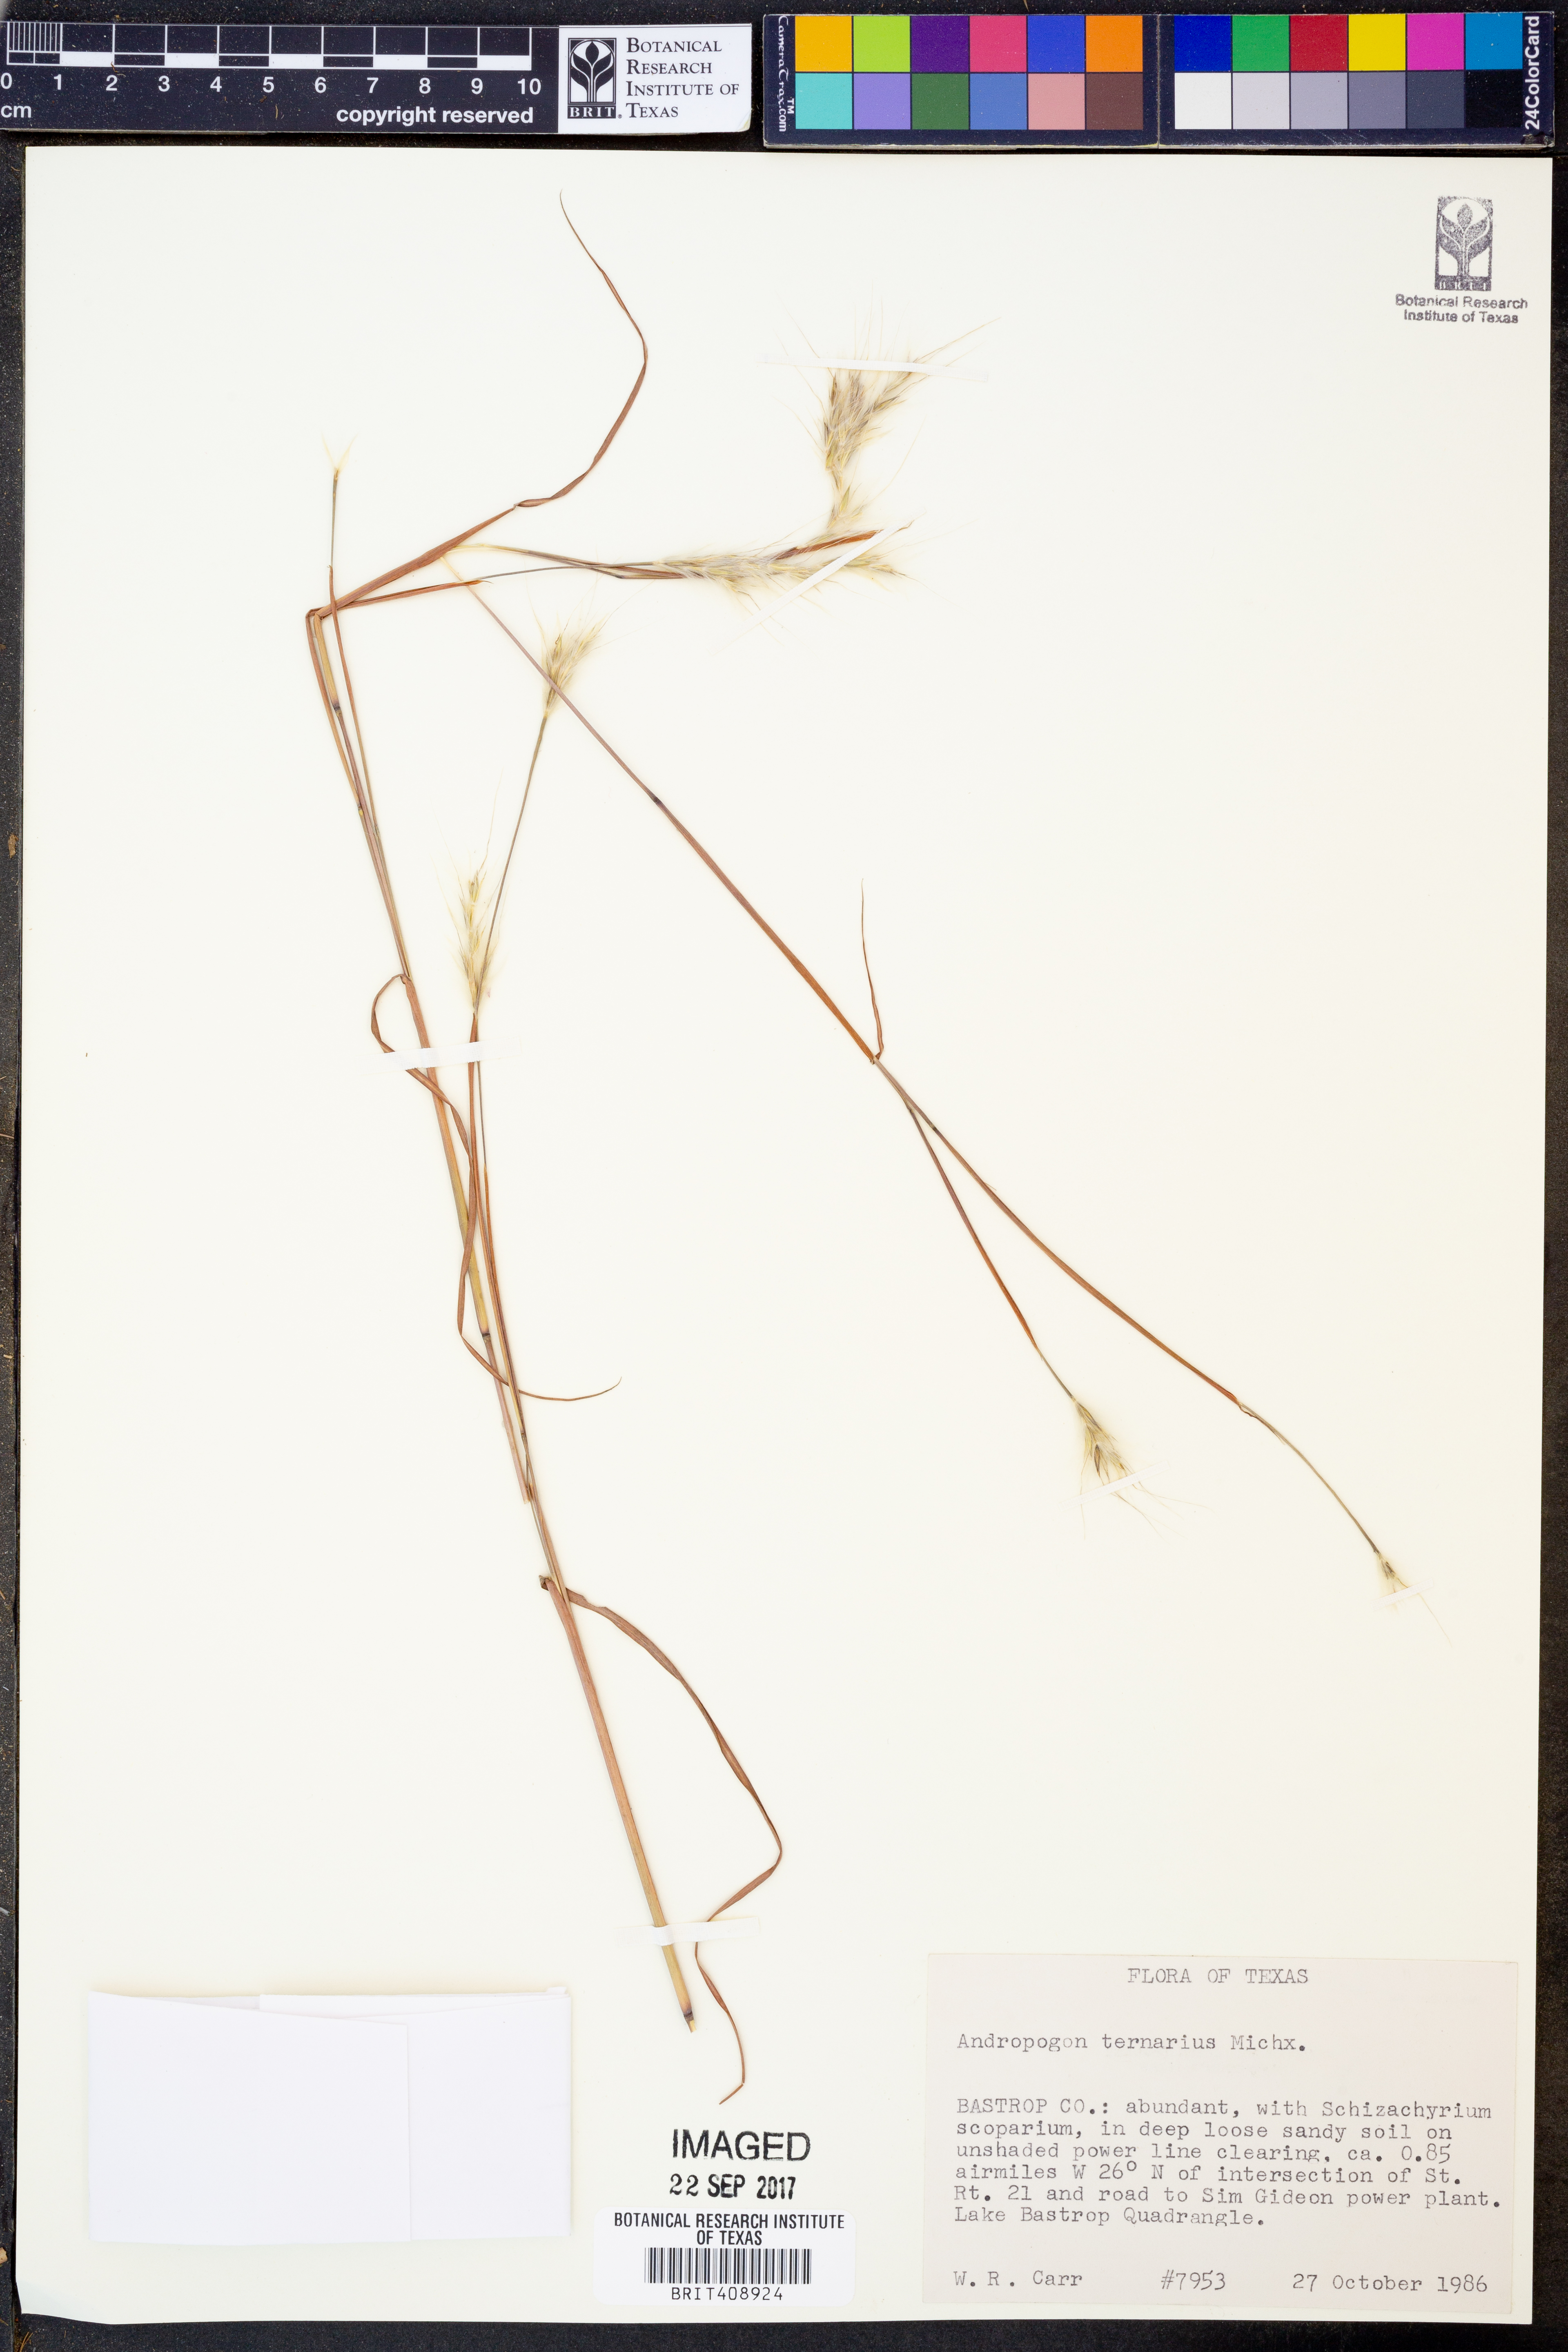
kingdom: Plantae
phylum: Tracheophyta
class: Liliopsida
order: Poales
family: Poaceae
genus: Andropogon
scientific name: Andropogon ternarius
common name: Split bluestem
